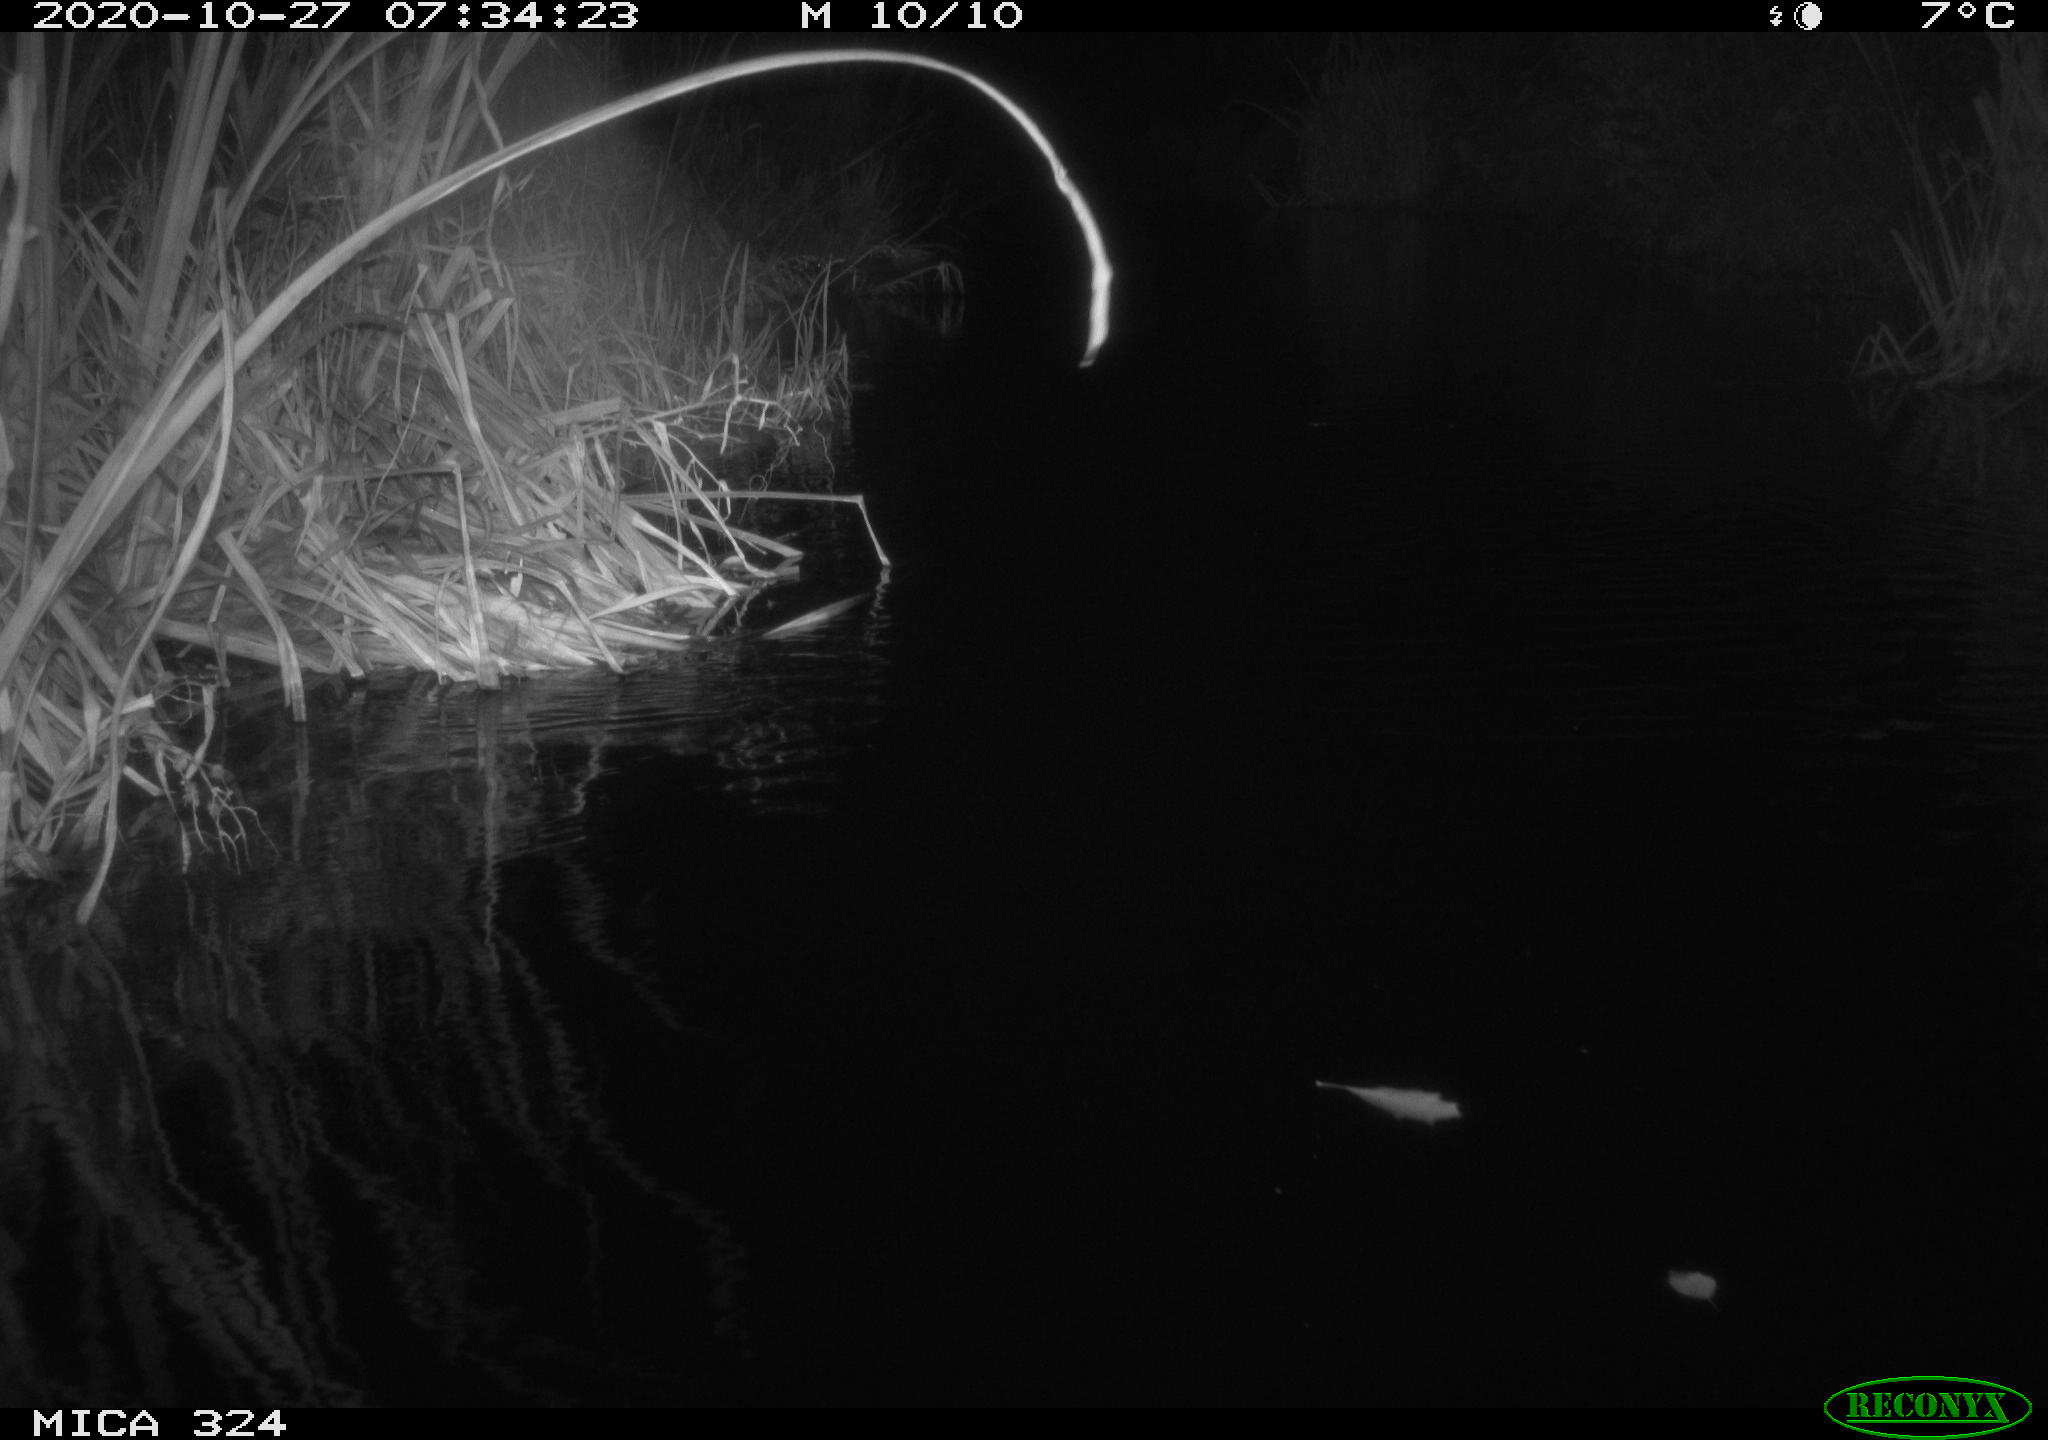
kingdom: Animalia
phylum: Chordata
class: Aves
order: Gruiformes
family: Rallidae
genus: Gallinula
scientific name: Gallinula chloropus
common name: Common moorhen
